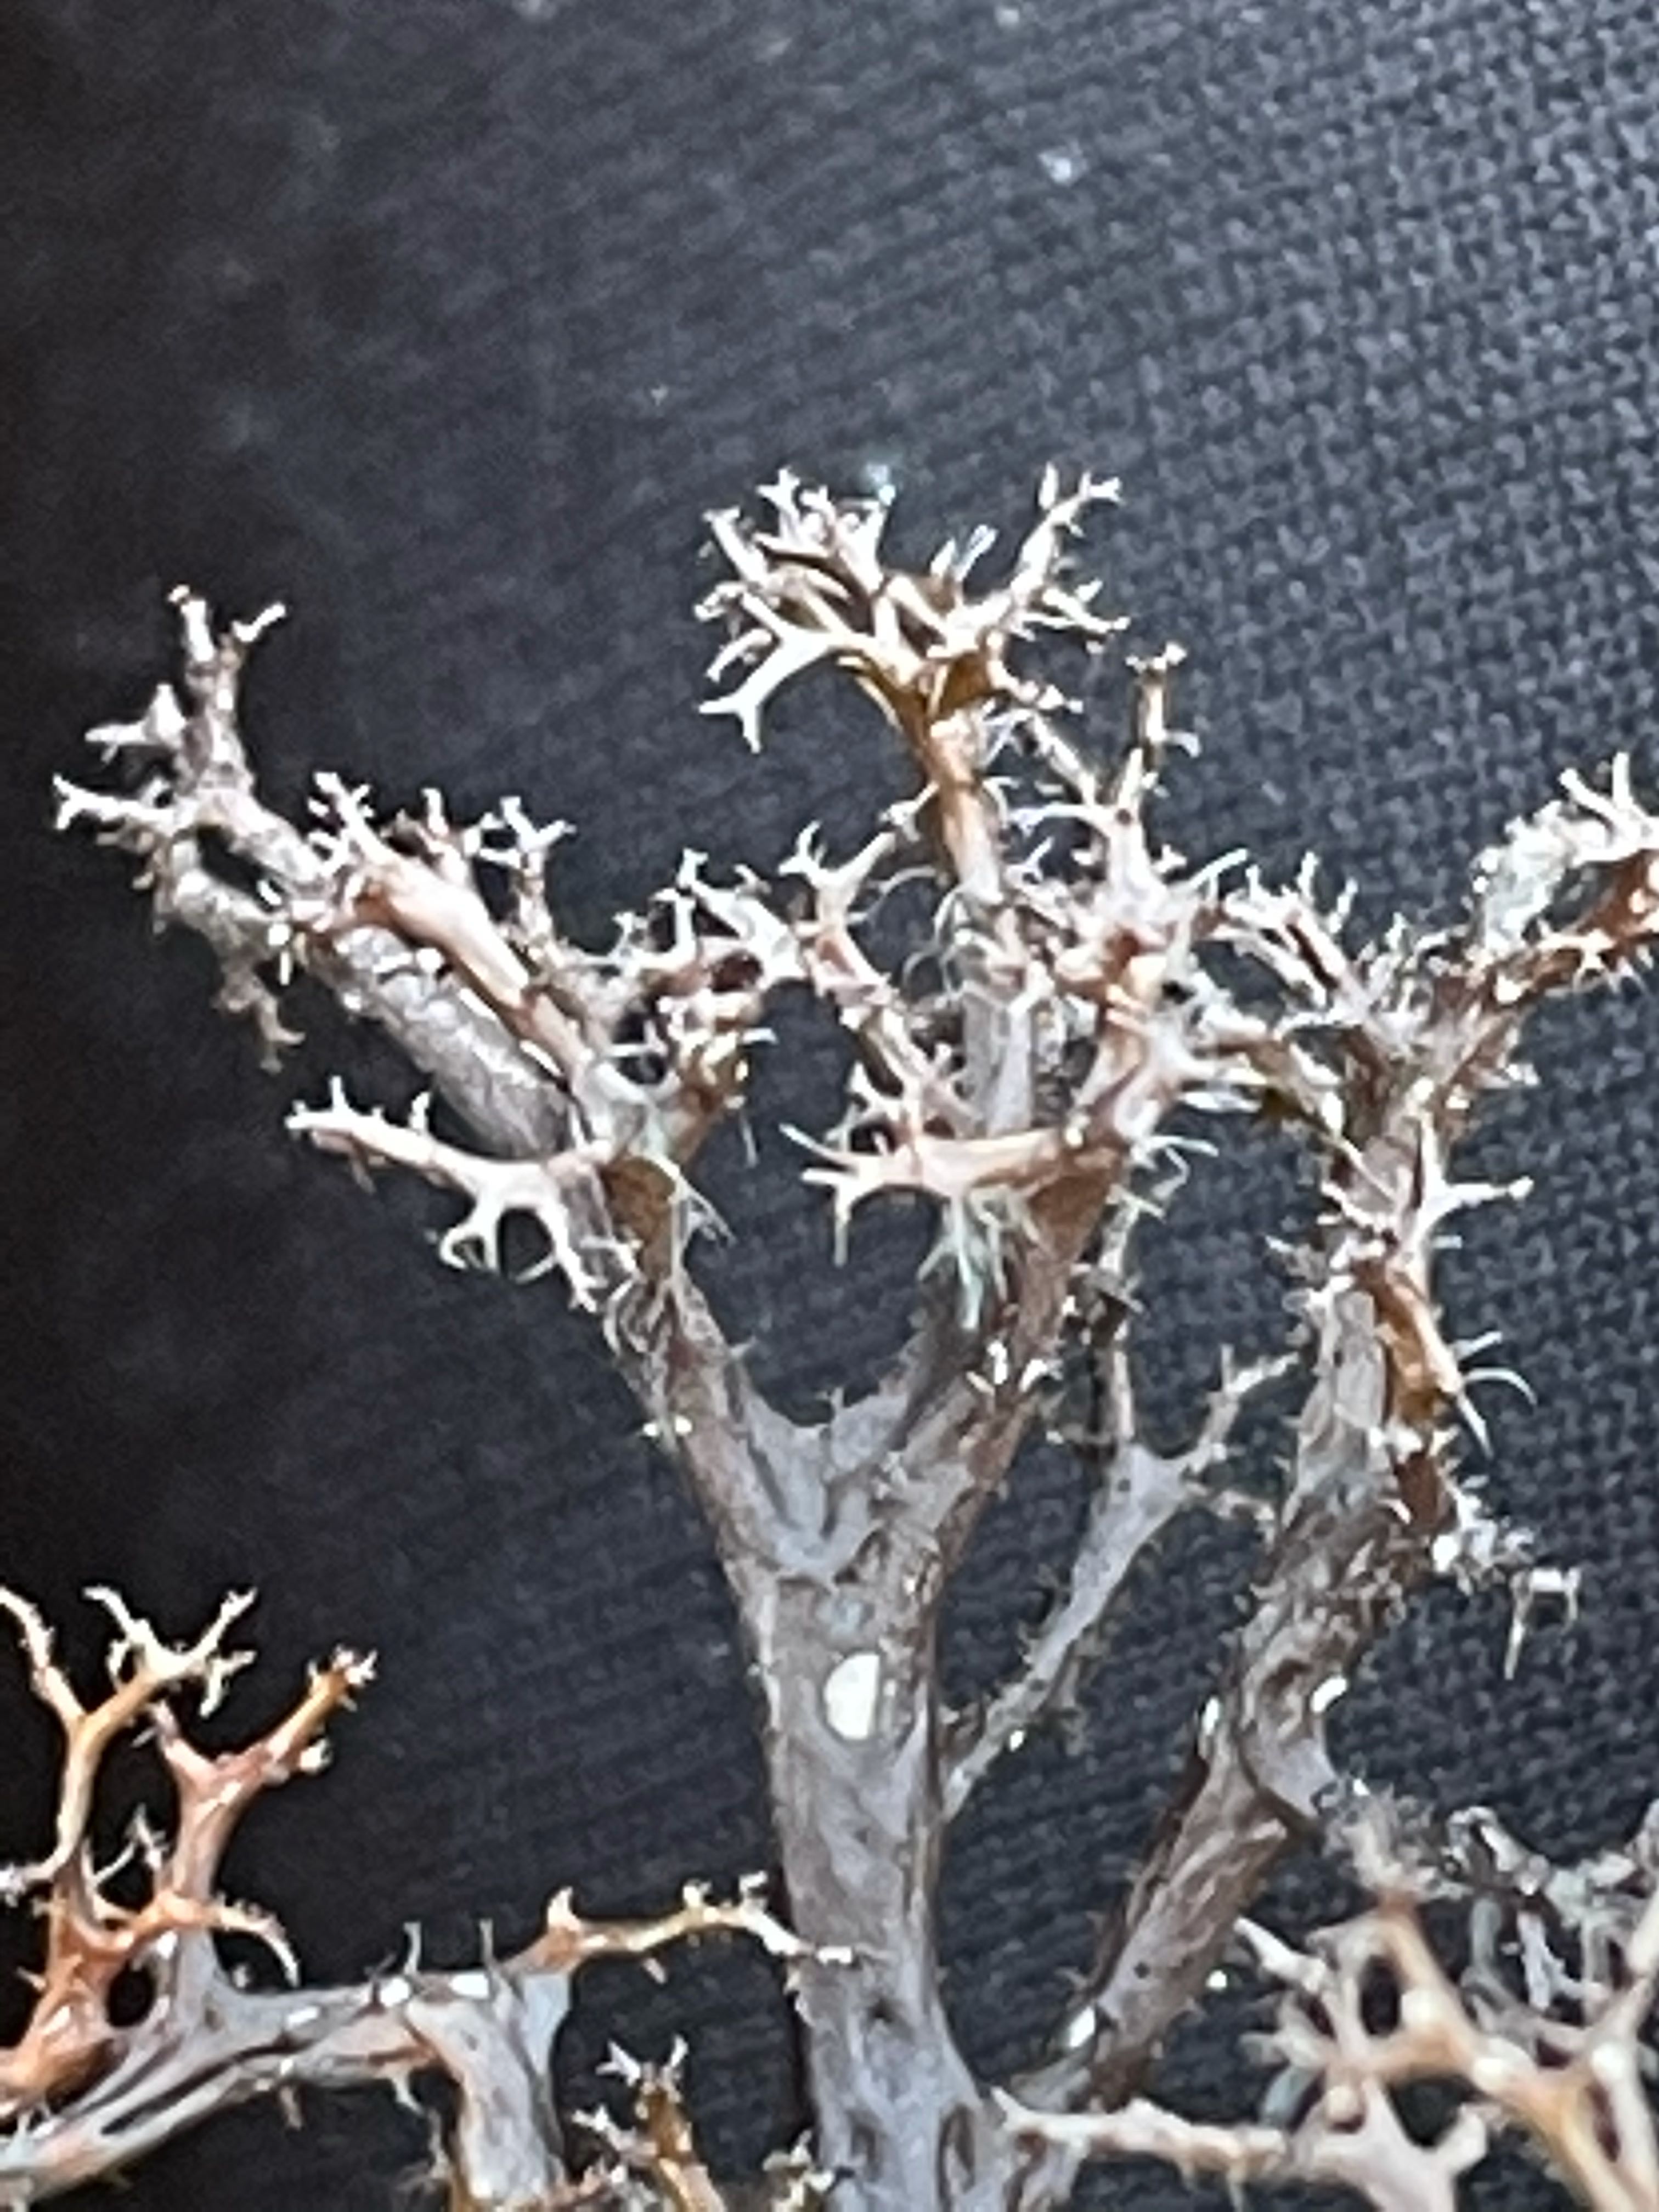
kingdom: Fungi
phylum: Ascomycota
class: Lecanoromycetes
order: Lecanorales
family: Parmeliaceae
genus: Cetraria
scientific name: Cetraria aculeata
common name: grubet tjørnelav
